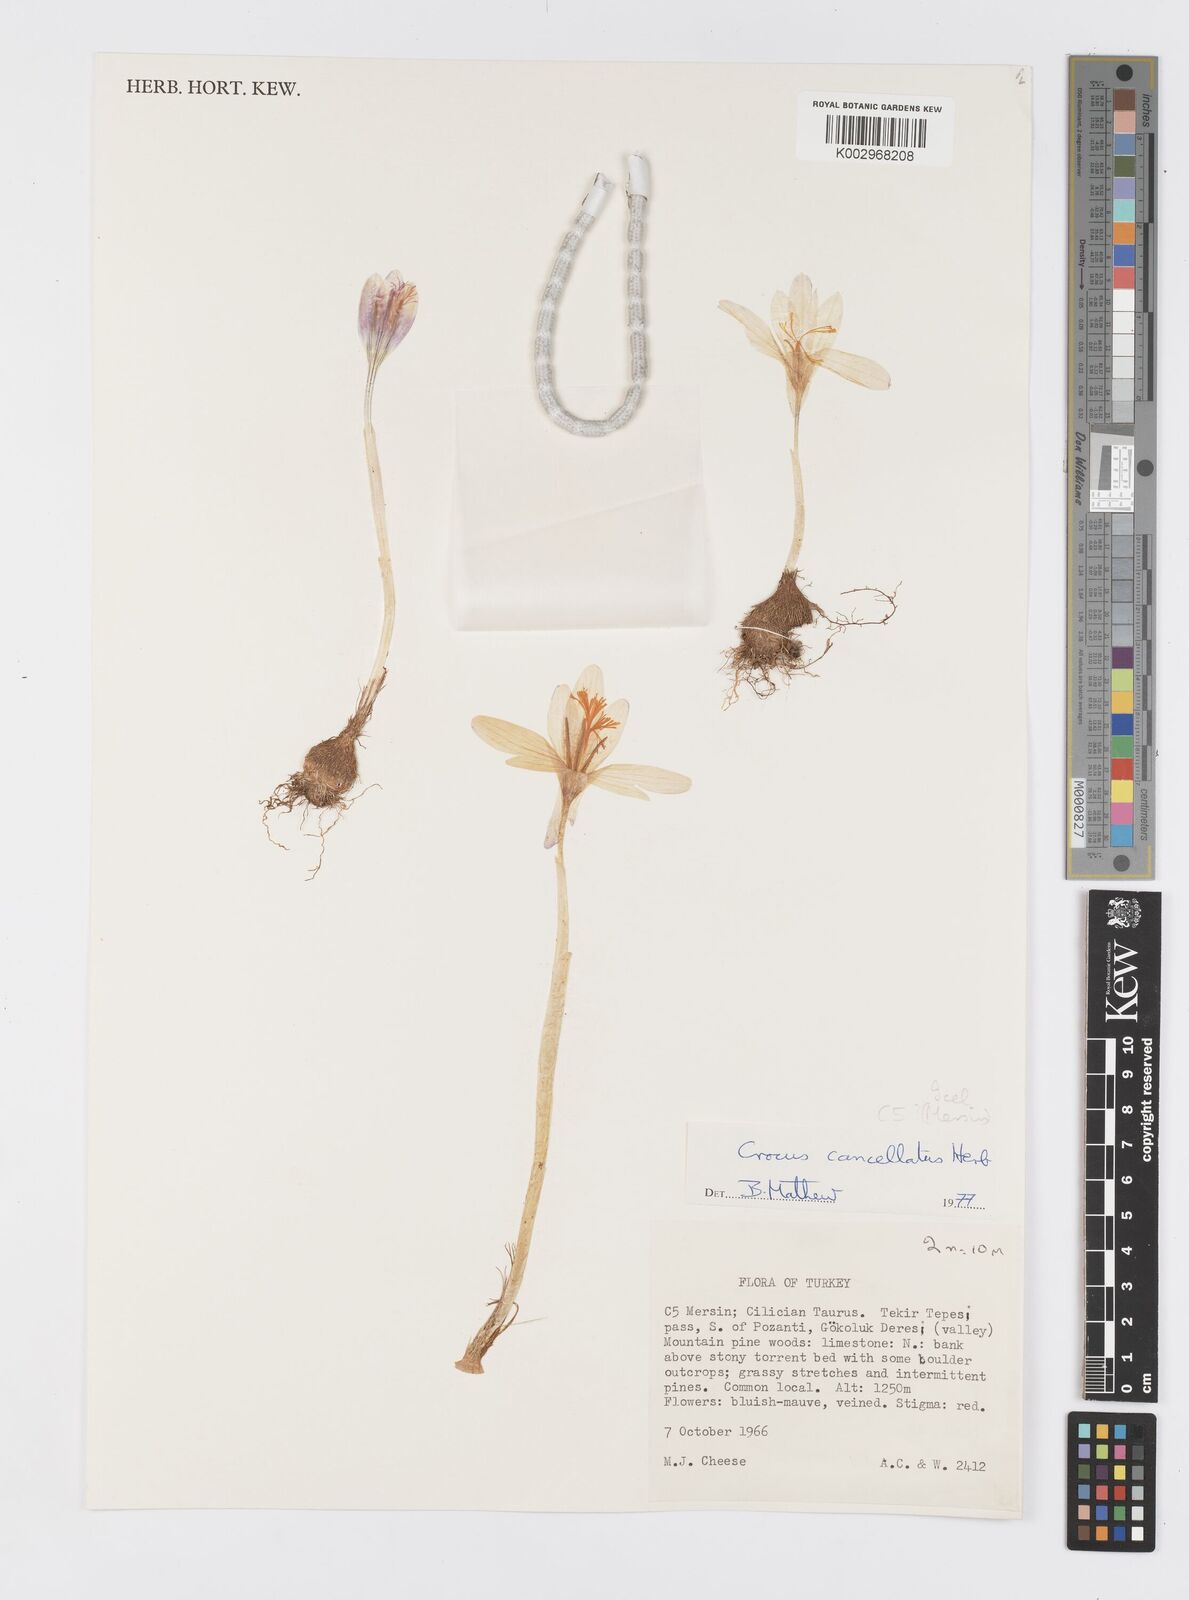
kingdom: Plantae
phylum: Tracheophyta
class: Liliopsida
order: Asparagales
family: Iridaceae
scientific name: Iridaceae
